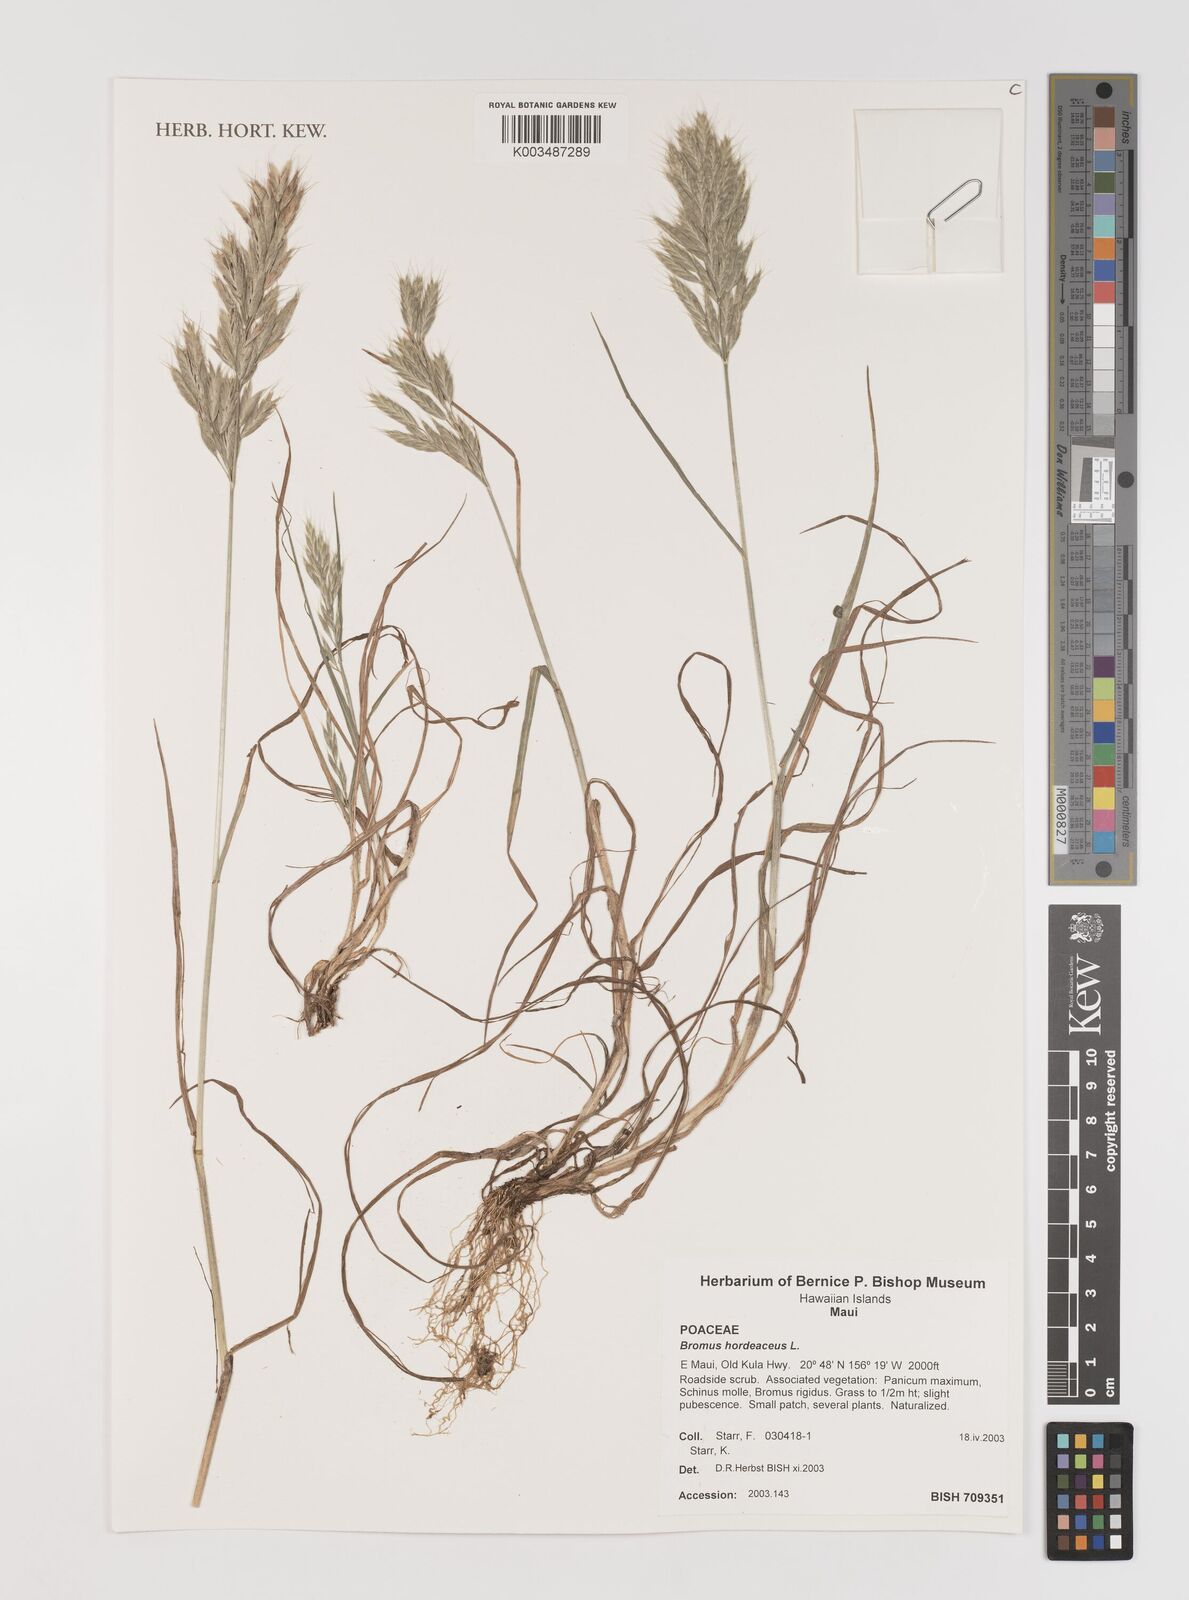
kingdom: Plantae
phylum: Tracheophyta
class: Liliopsida
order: Poales
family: Poaceae
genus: Bromus
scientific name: Bromus hordeaceus
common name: Soft brome
